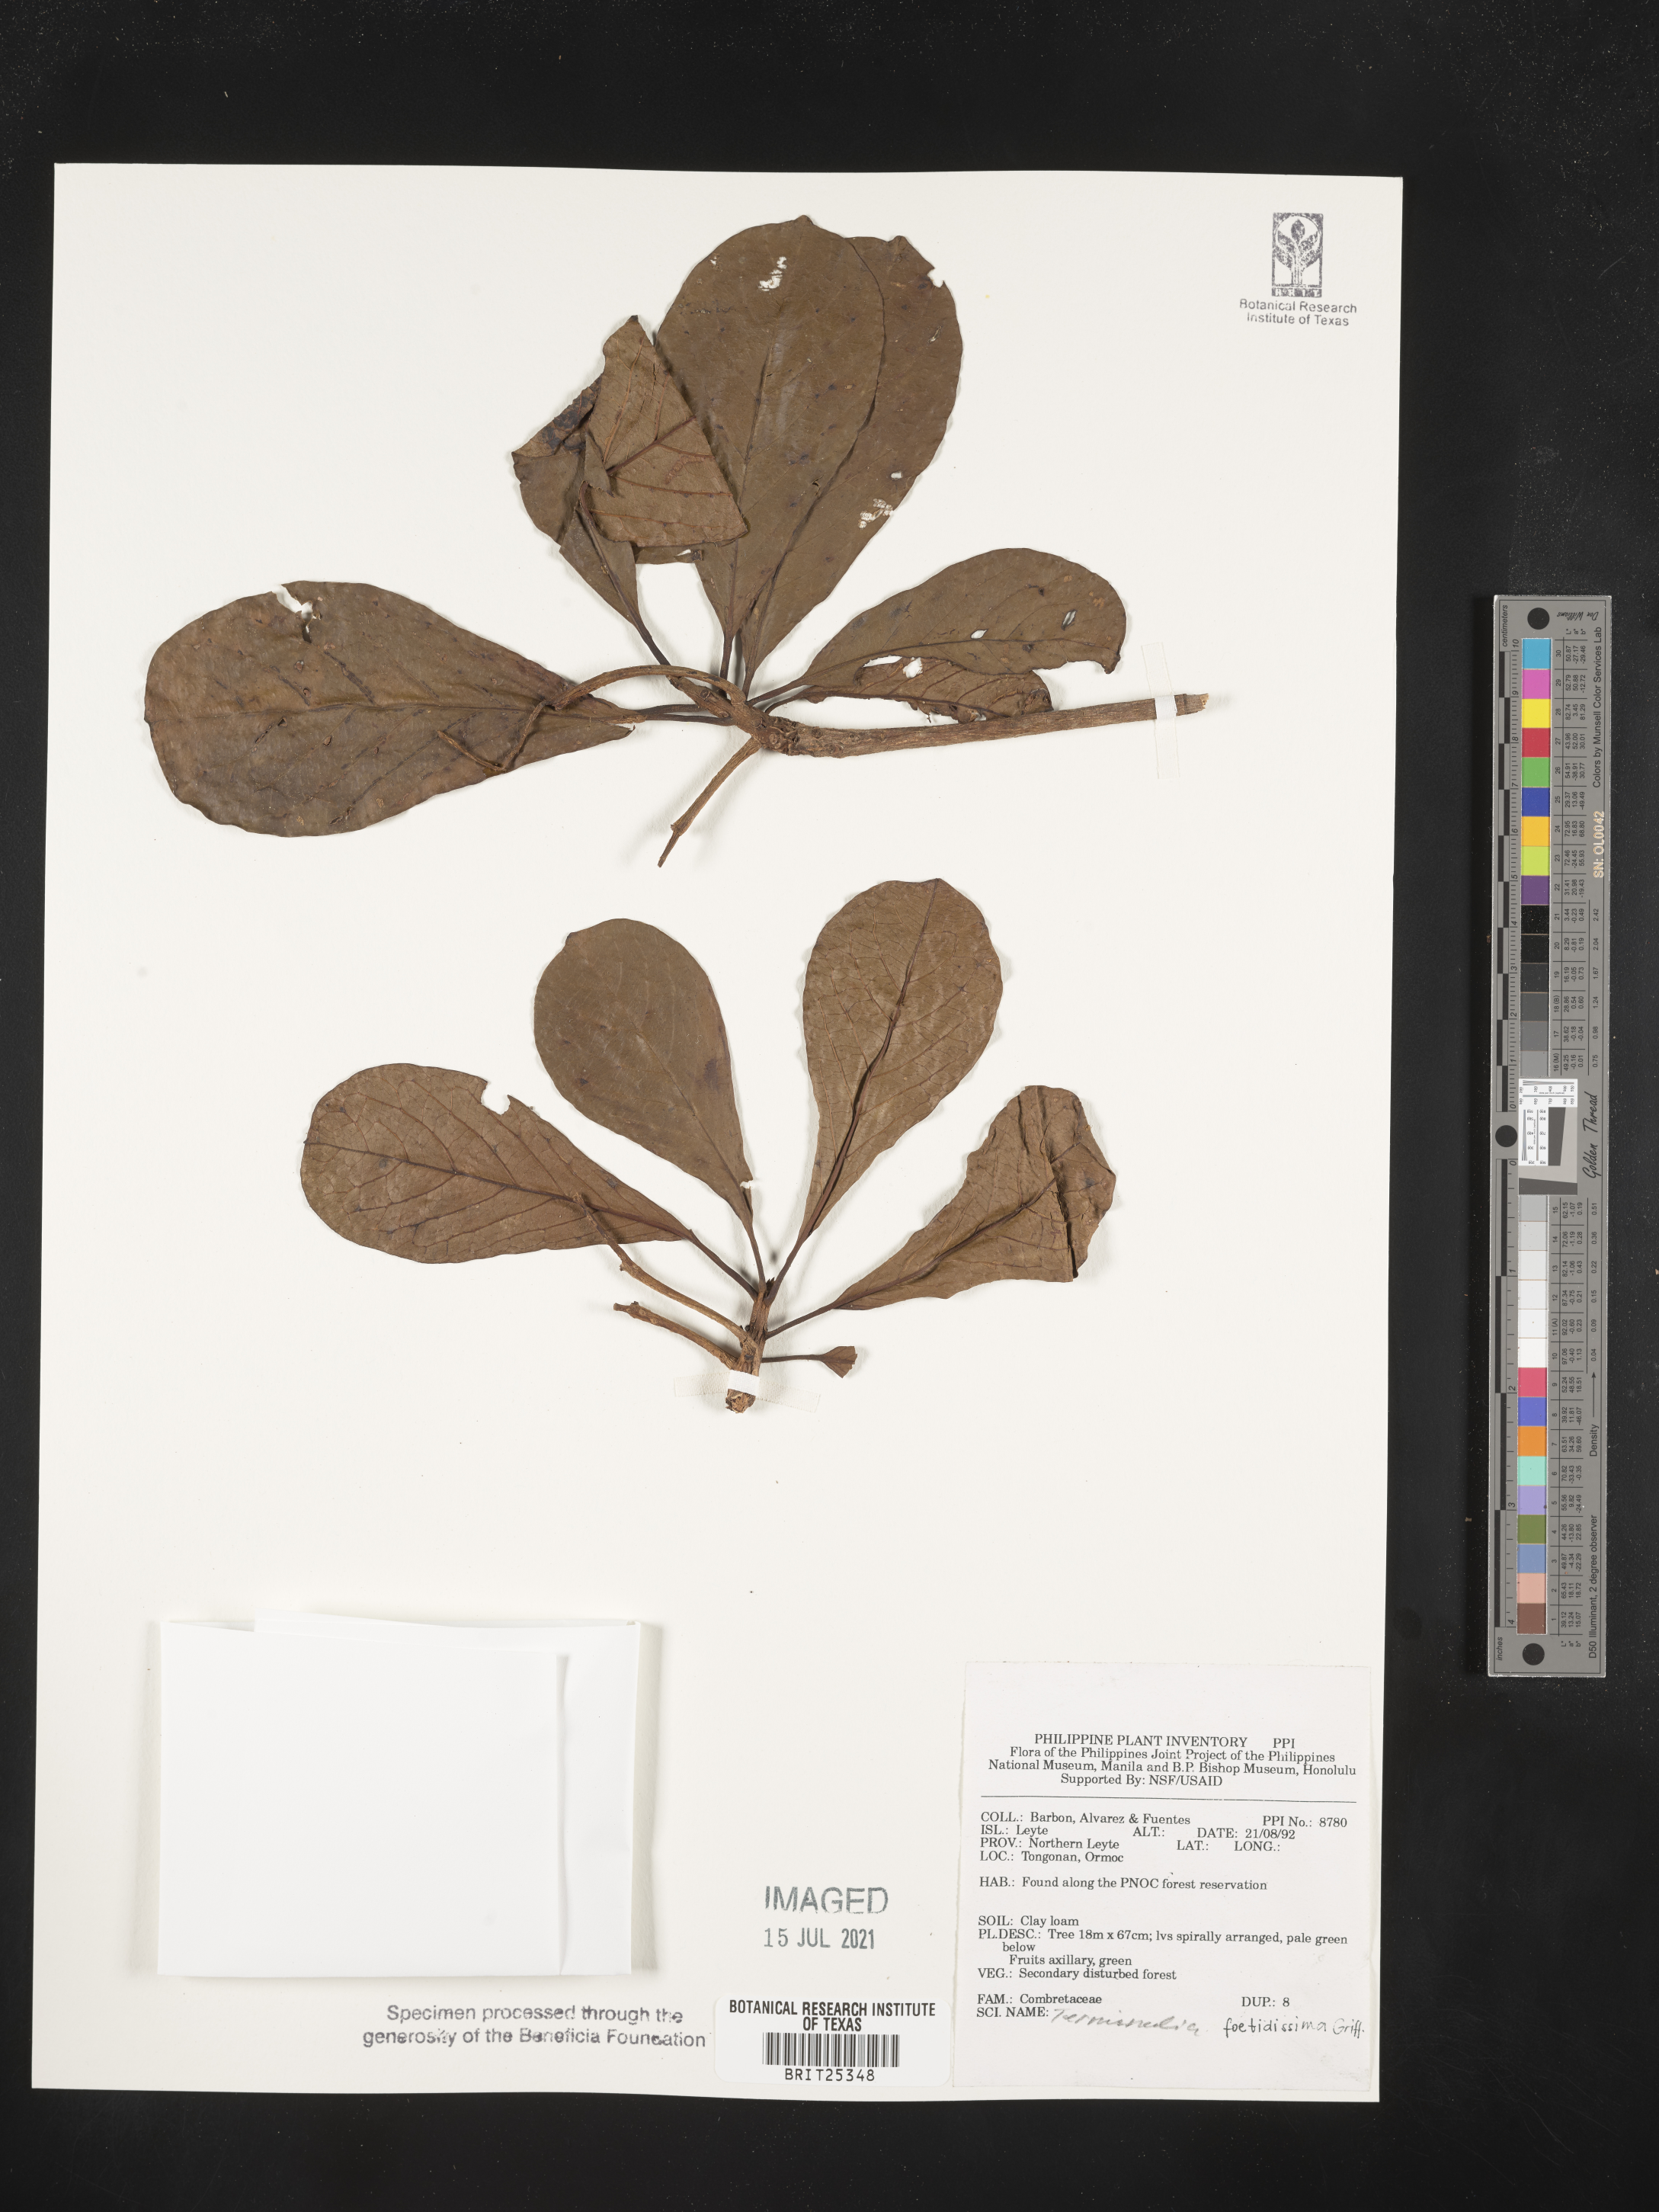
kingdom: Plantae
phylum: Tracheophyta
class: Magnoliopsida
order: Myrtales
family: Combretaceae
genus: Terminalia
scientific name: Terminalia foetidissima
